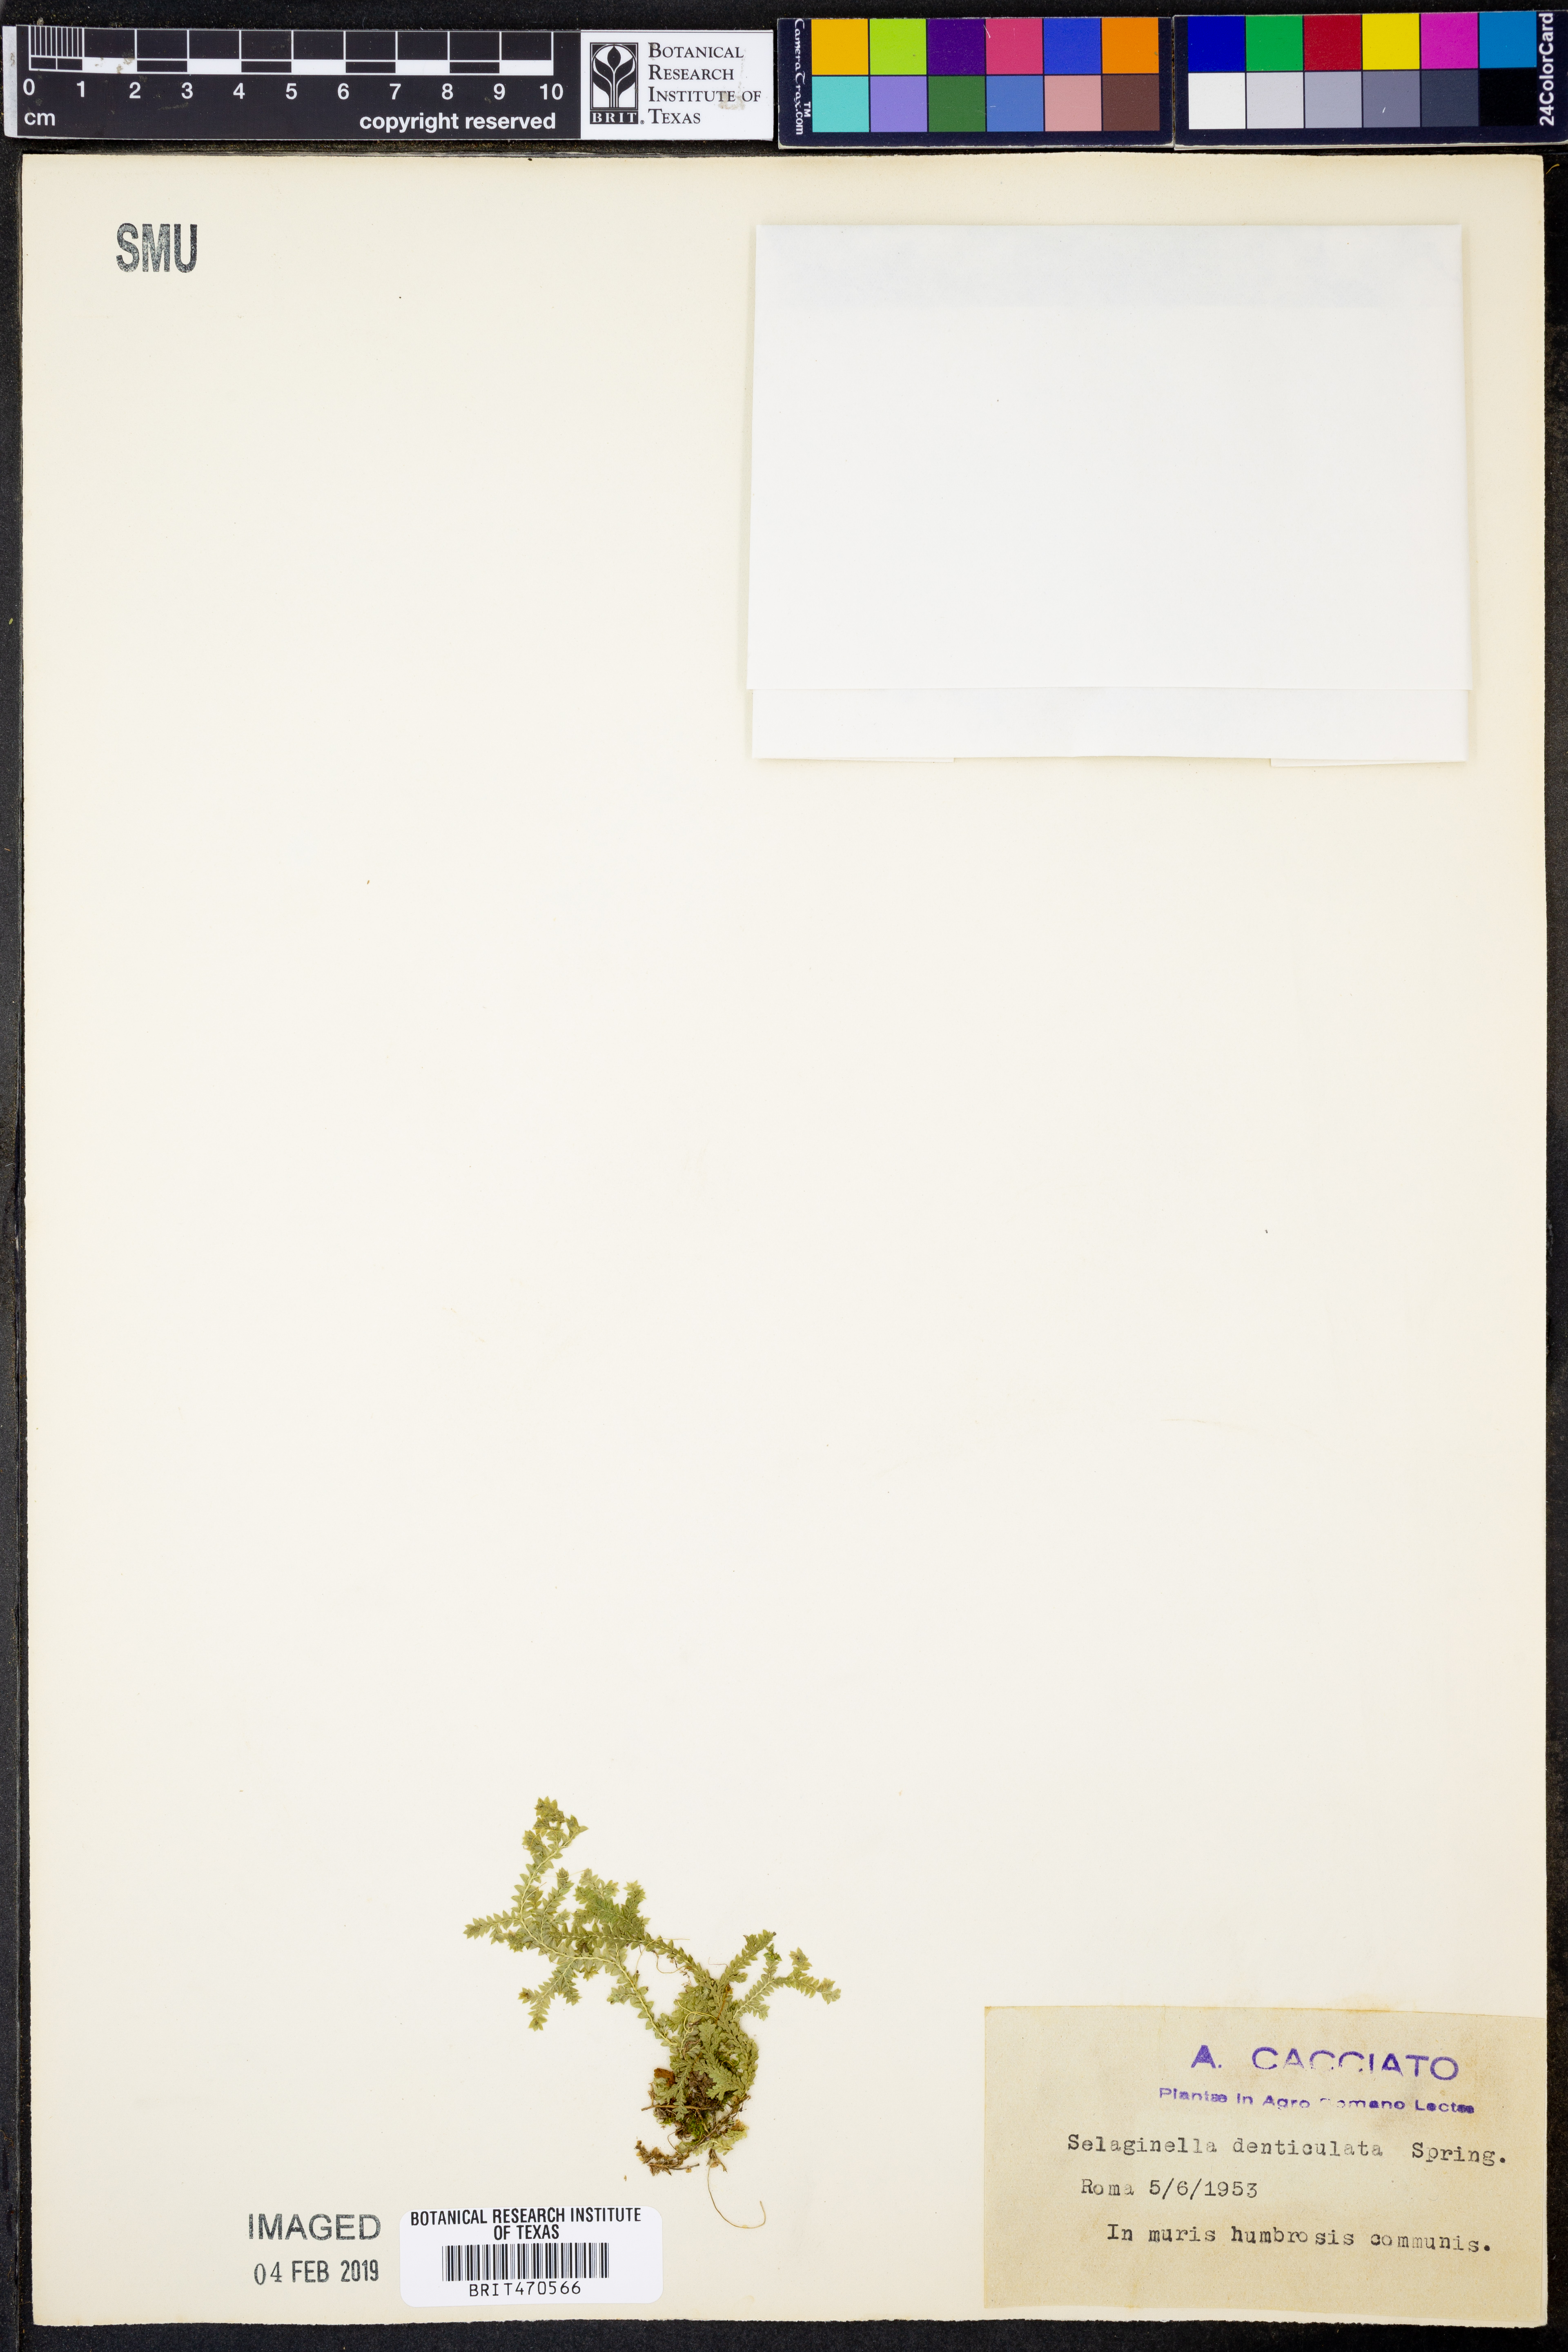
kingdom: Plantae
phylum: Tracheophyta
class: Lycopodiopsida
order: Selaginellales
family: Selaginellaceae
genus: Selaginella
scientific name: Selaginella denticulata
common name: Toothed-leaved clubmoss
